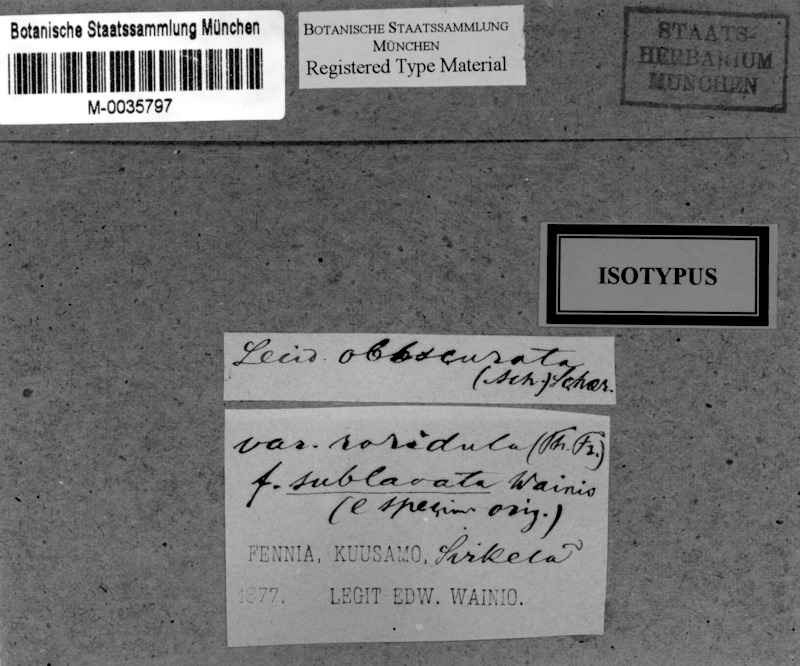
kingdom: Fungi
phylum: Ascomycota
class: Lecanoromycetes
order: Rhizocarpales
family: Rhizocarpaceae
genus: Rhizocarpon
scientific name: Rhizocarpon roridulum
